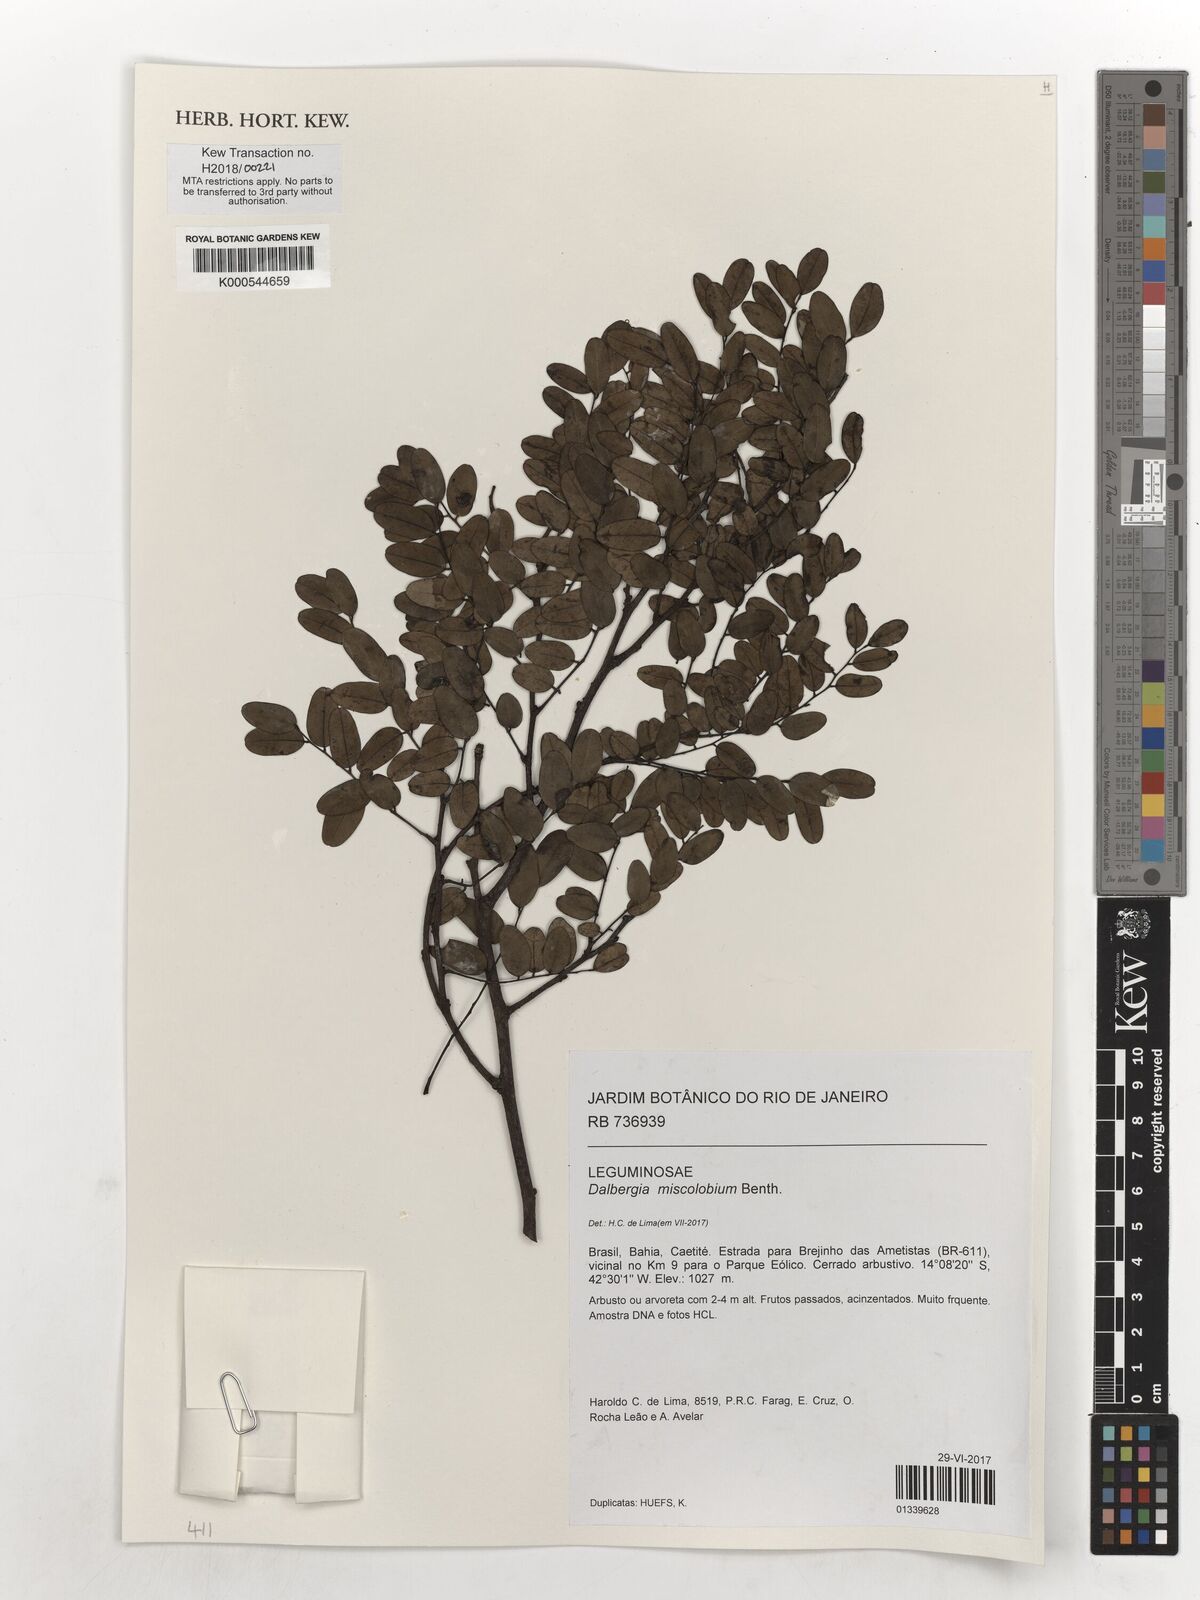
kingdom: Plantae
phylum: Tracheophyta
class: Magnoliopsida
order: Fabales
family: Fabaceae
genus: Dalbergia
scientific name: Dalbergia miscolobium
